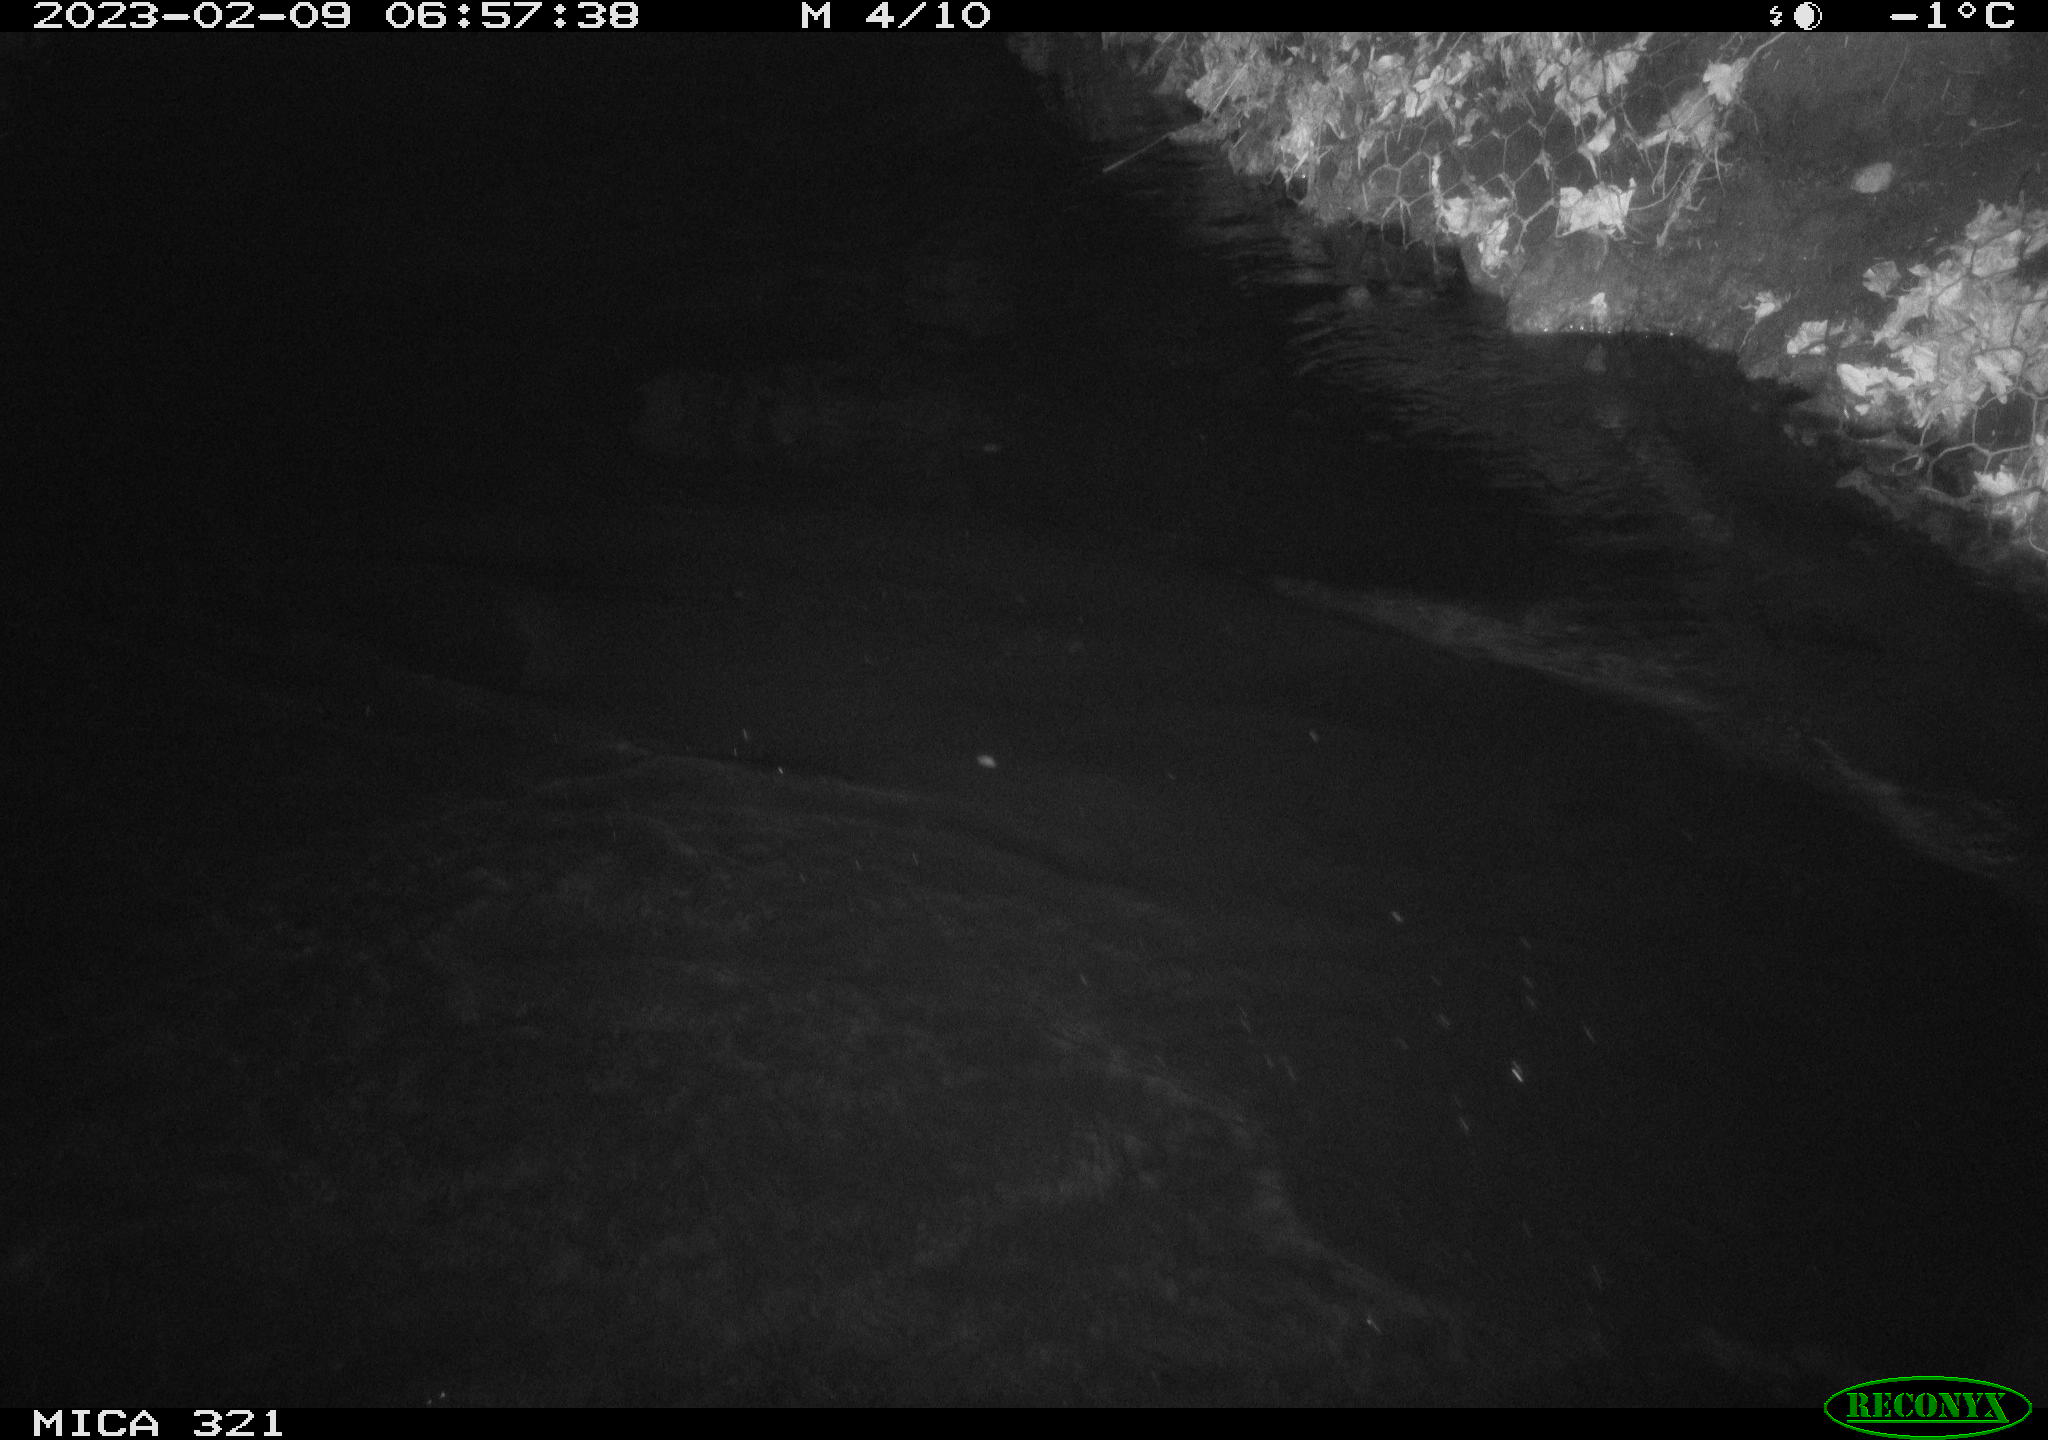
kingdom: Animalia
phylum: Chordata
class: Mammalia
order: Rodentia
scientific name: Rodentia
